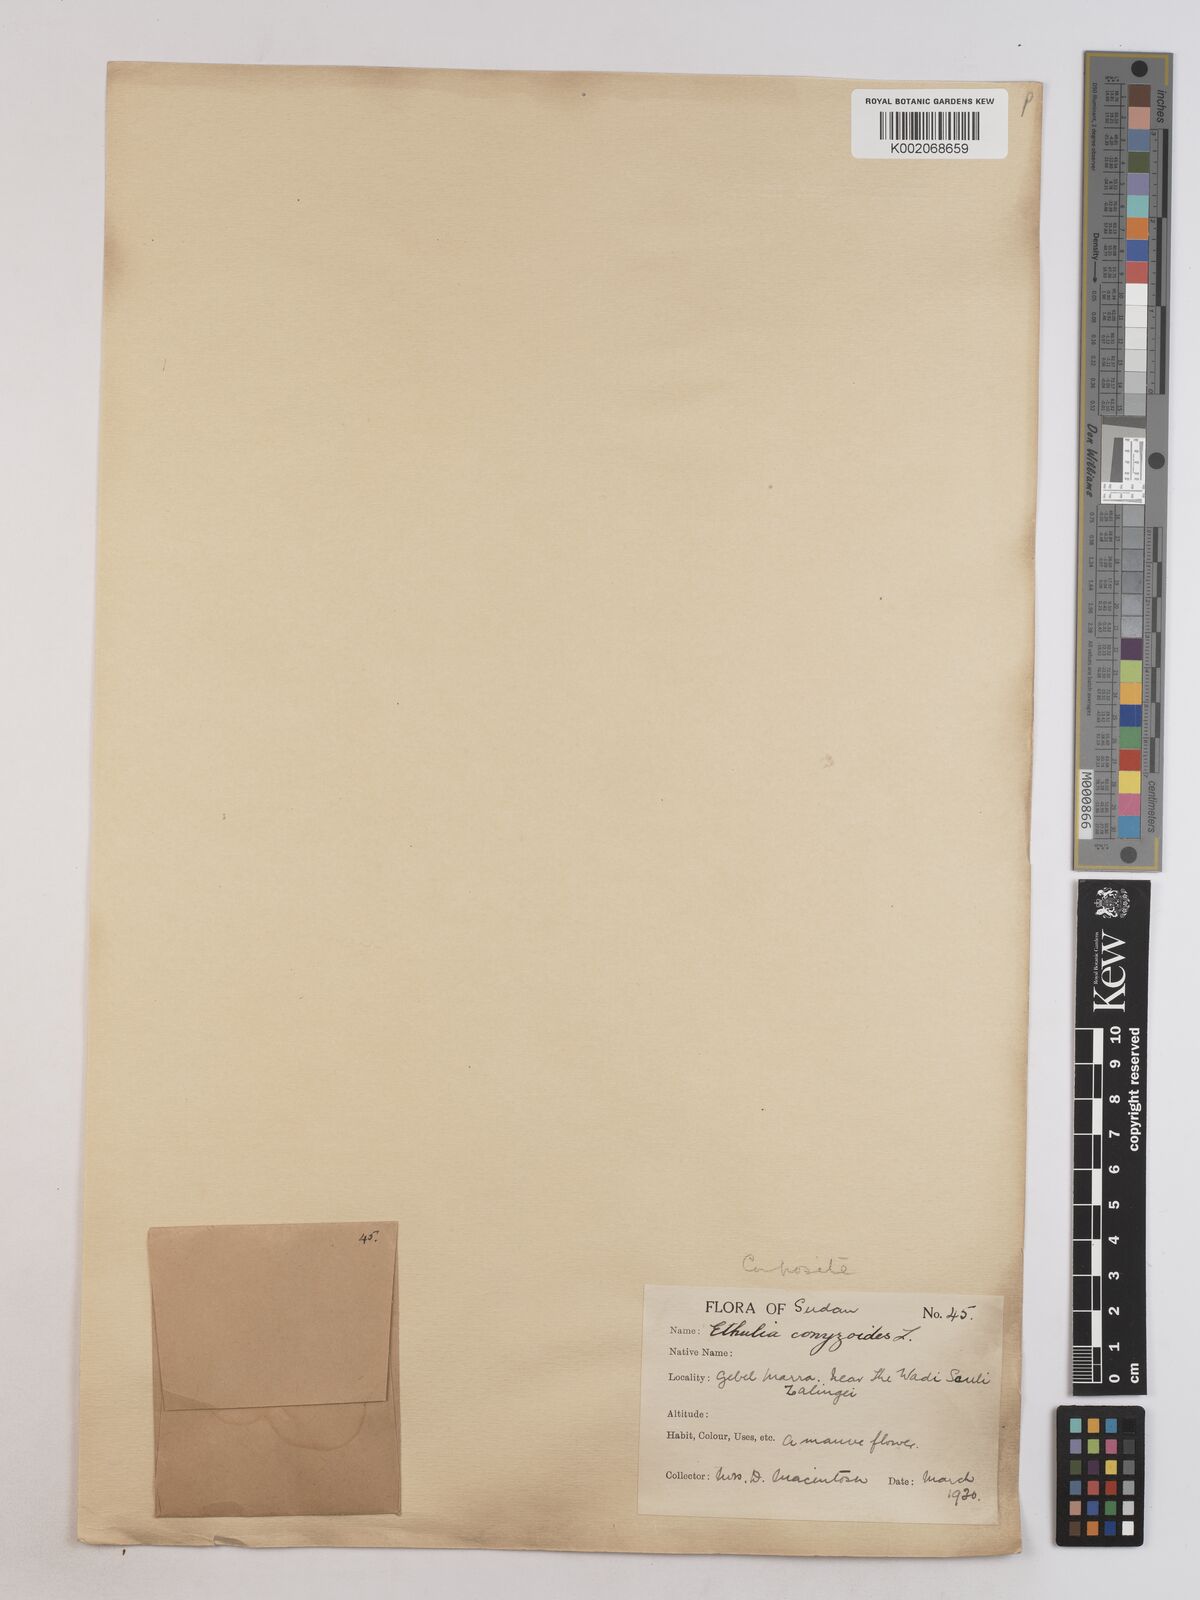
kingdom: Plantae
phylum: Tracheophyta
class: Magnoliopsida
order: Asterales
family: Asteraceae
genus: Ethulia
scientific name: Ethulia gracilis
